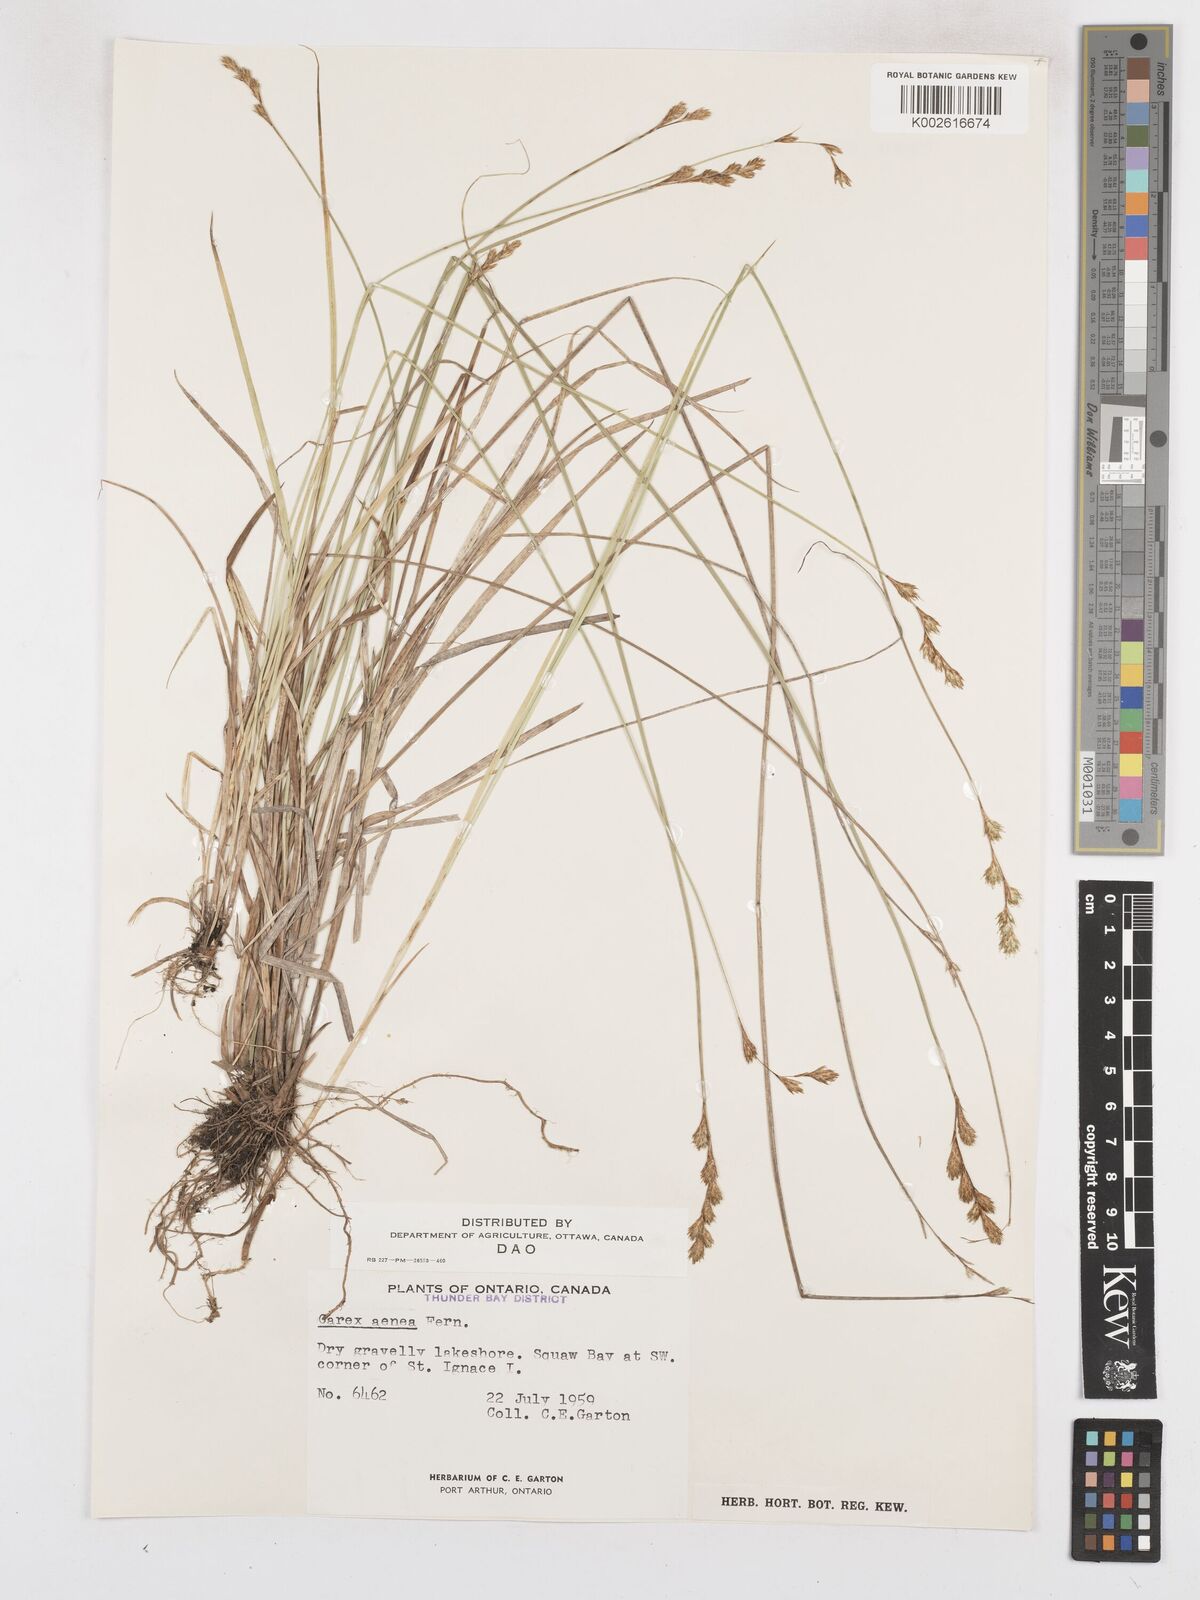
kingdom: Plantae
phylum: Tracheophyta
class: Liliopsida
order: Poales
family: Cyperaceae
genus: Carex
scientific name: Carex foenea
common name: Bronze sedge
